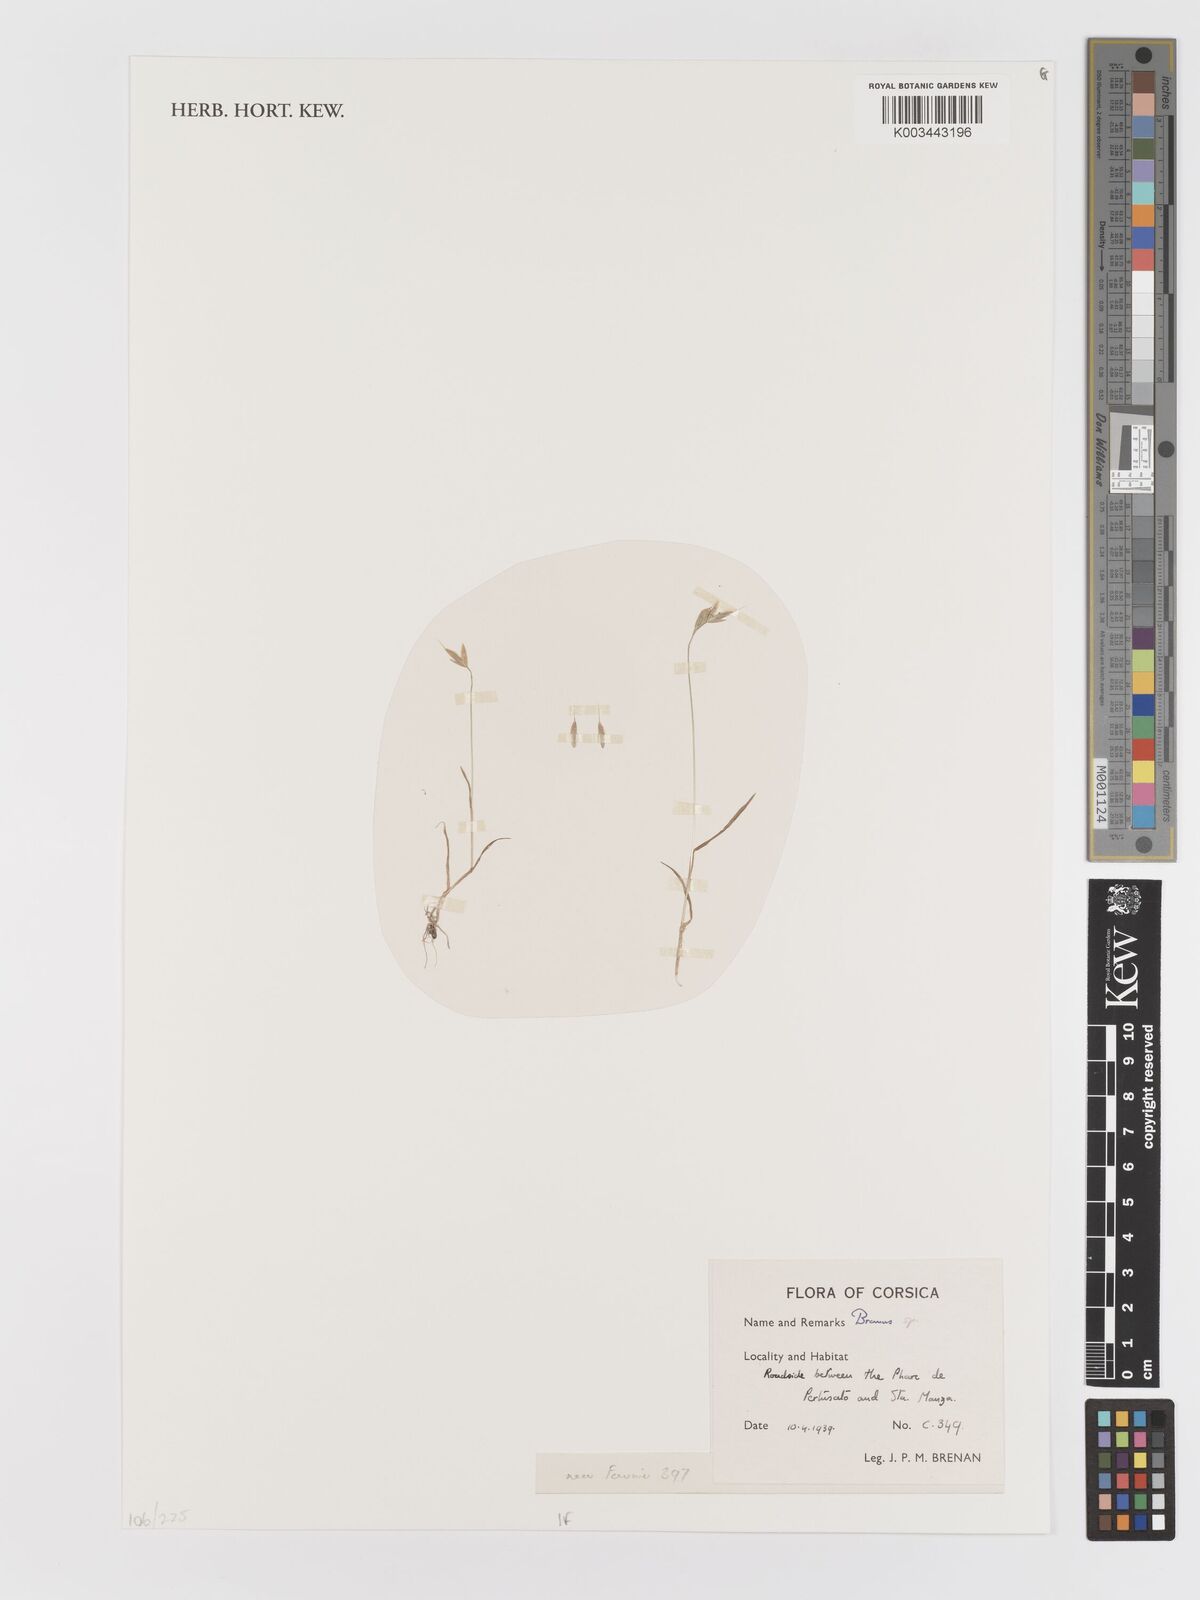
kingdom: Plantae
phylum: Tracheophyta
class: Liliopsida
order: Poales
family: Poaceae
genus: Bromus
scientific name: Bromus
